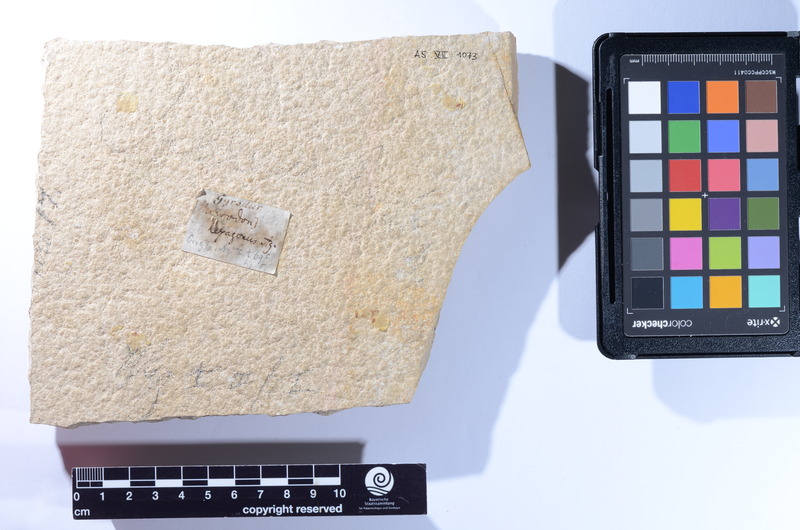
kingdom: Animalia
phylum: Chordata
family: Gyrodontidae
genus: Gyrodus
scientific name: Gyrodus hexagonus
